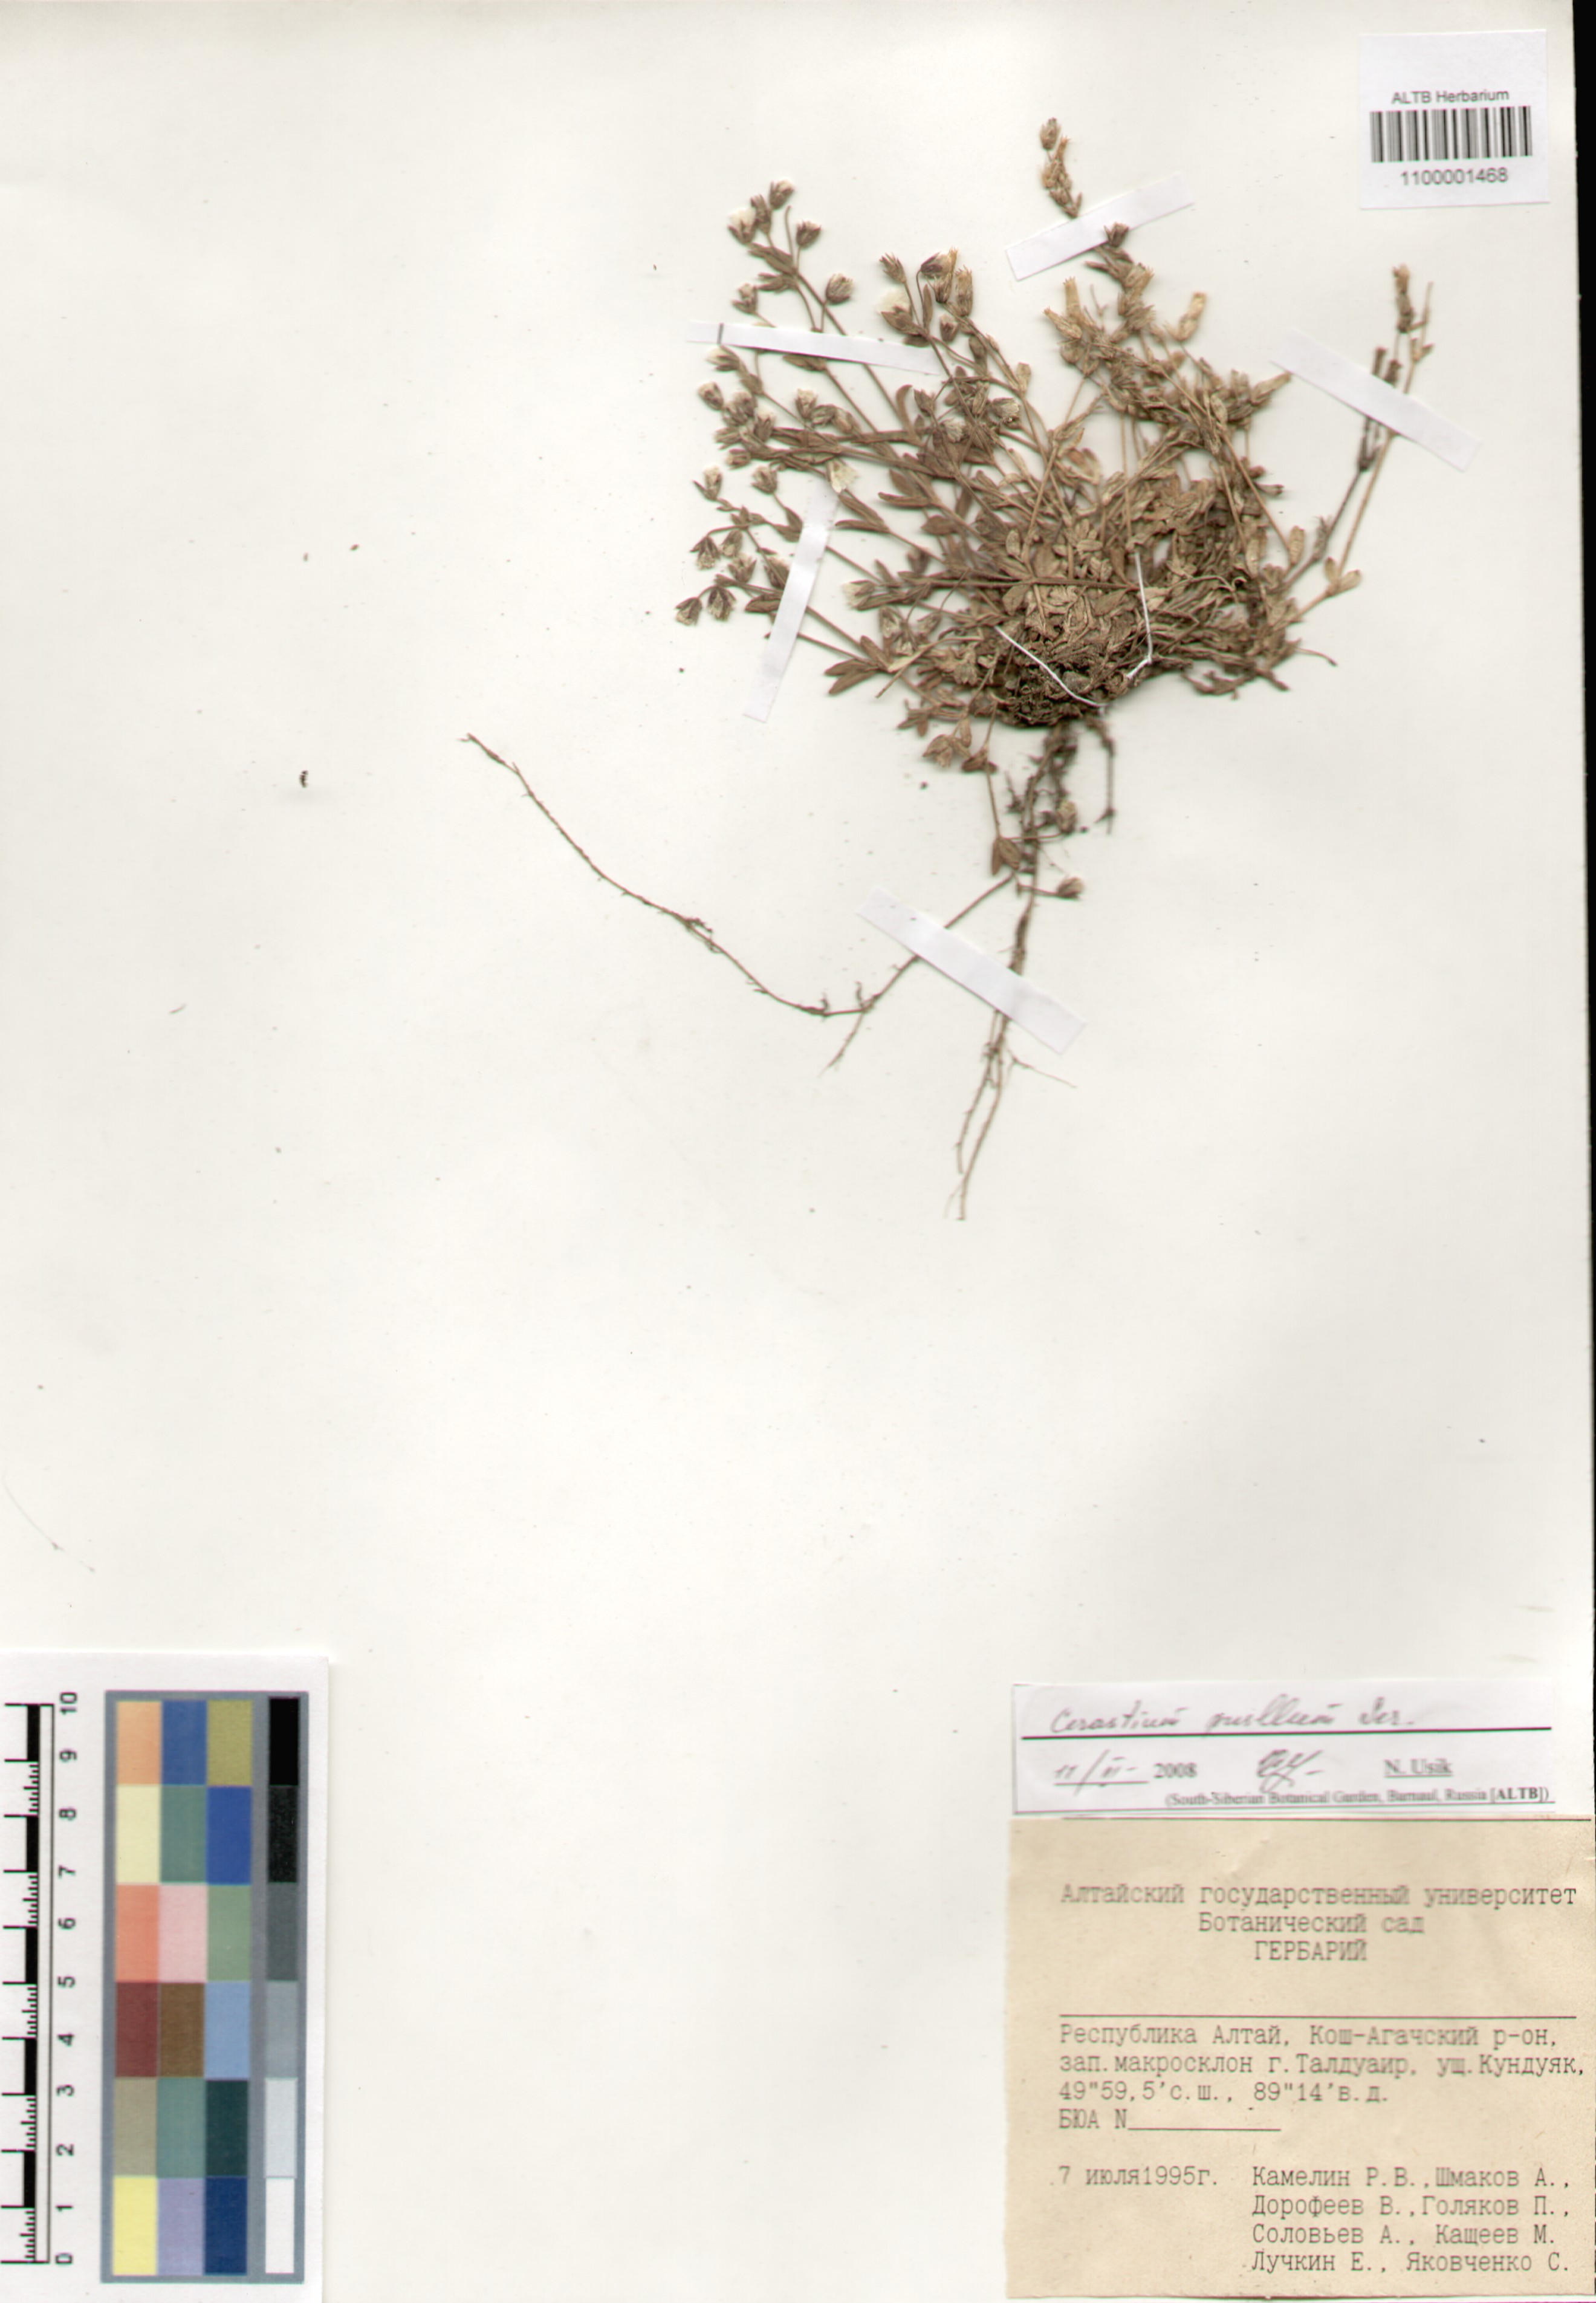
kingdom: Plantae
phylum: Tracheophyta
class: Magnoliopsida
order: Caryophyllales
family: Caryophyllaceae
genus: Cerastium
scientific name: Cerastium pusillum
